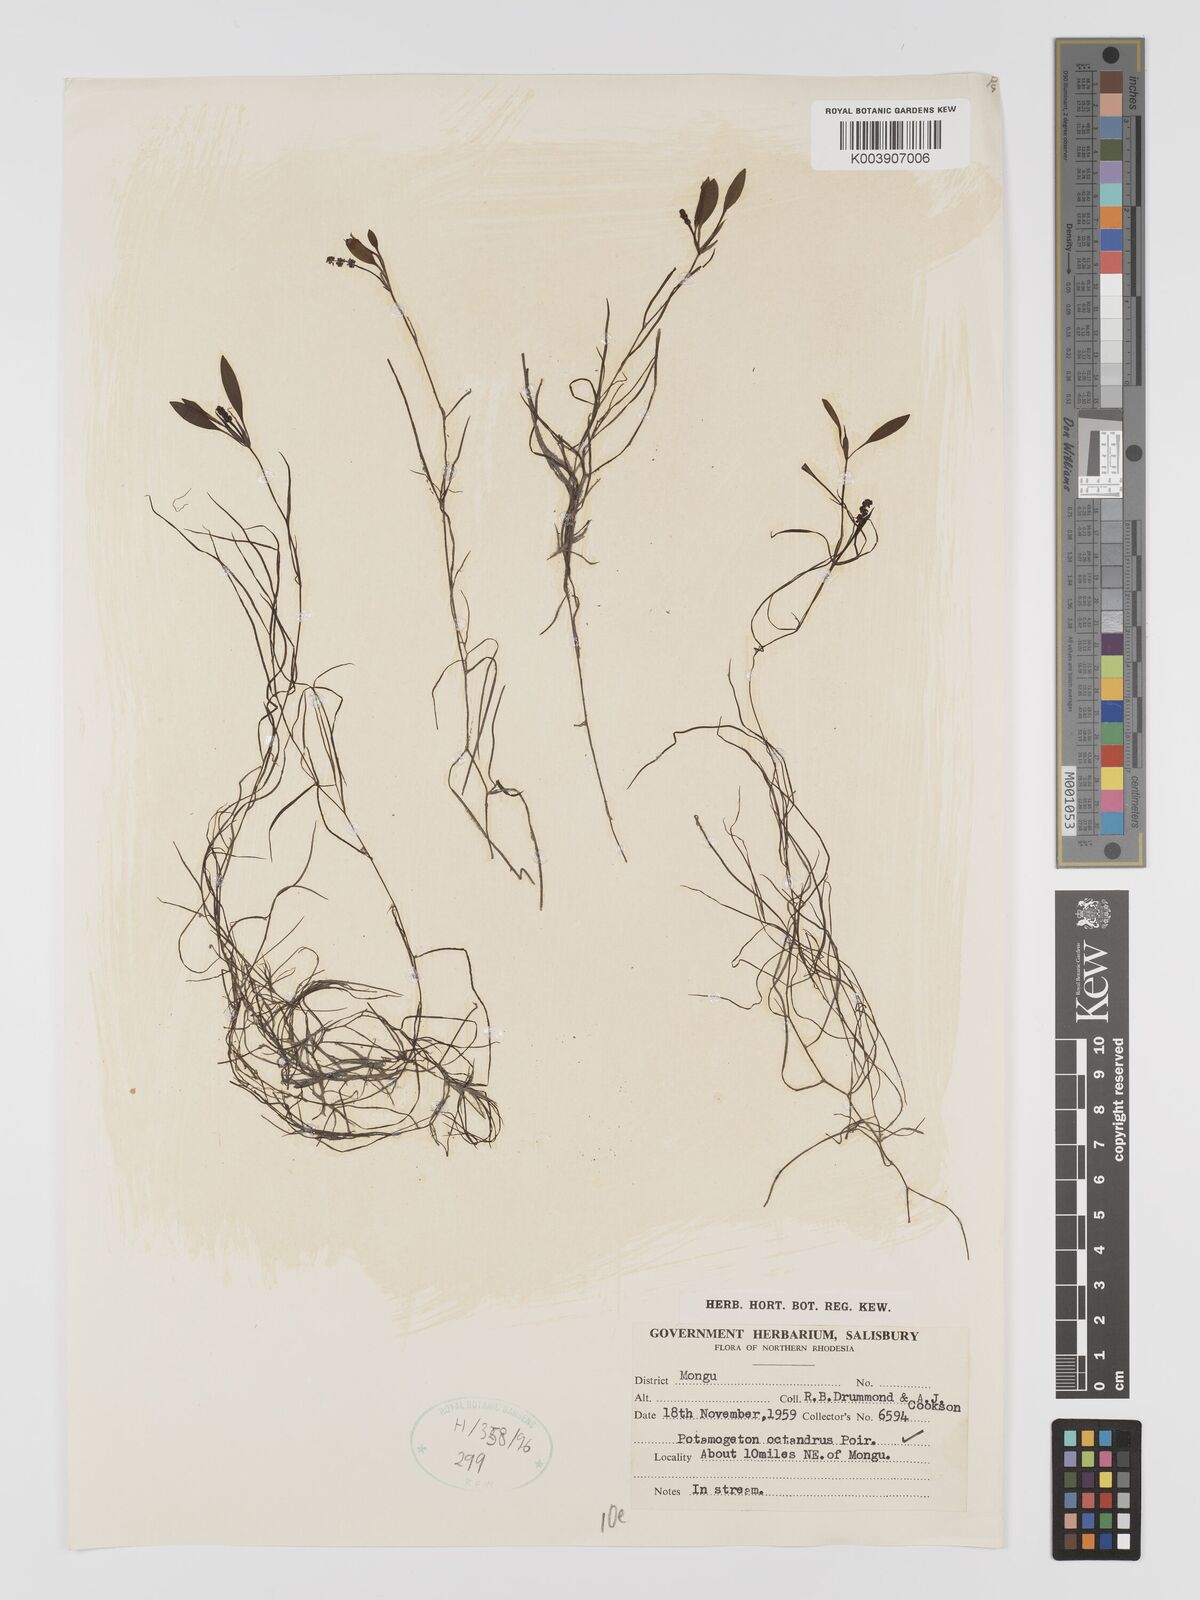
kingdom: Plantae
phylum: Tracheophyta
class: Liliopsida
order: Alismatales
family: Potamogetonaceae
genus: Potamogeton
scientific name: Potamogeton octandrus
